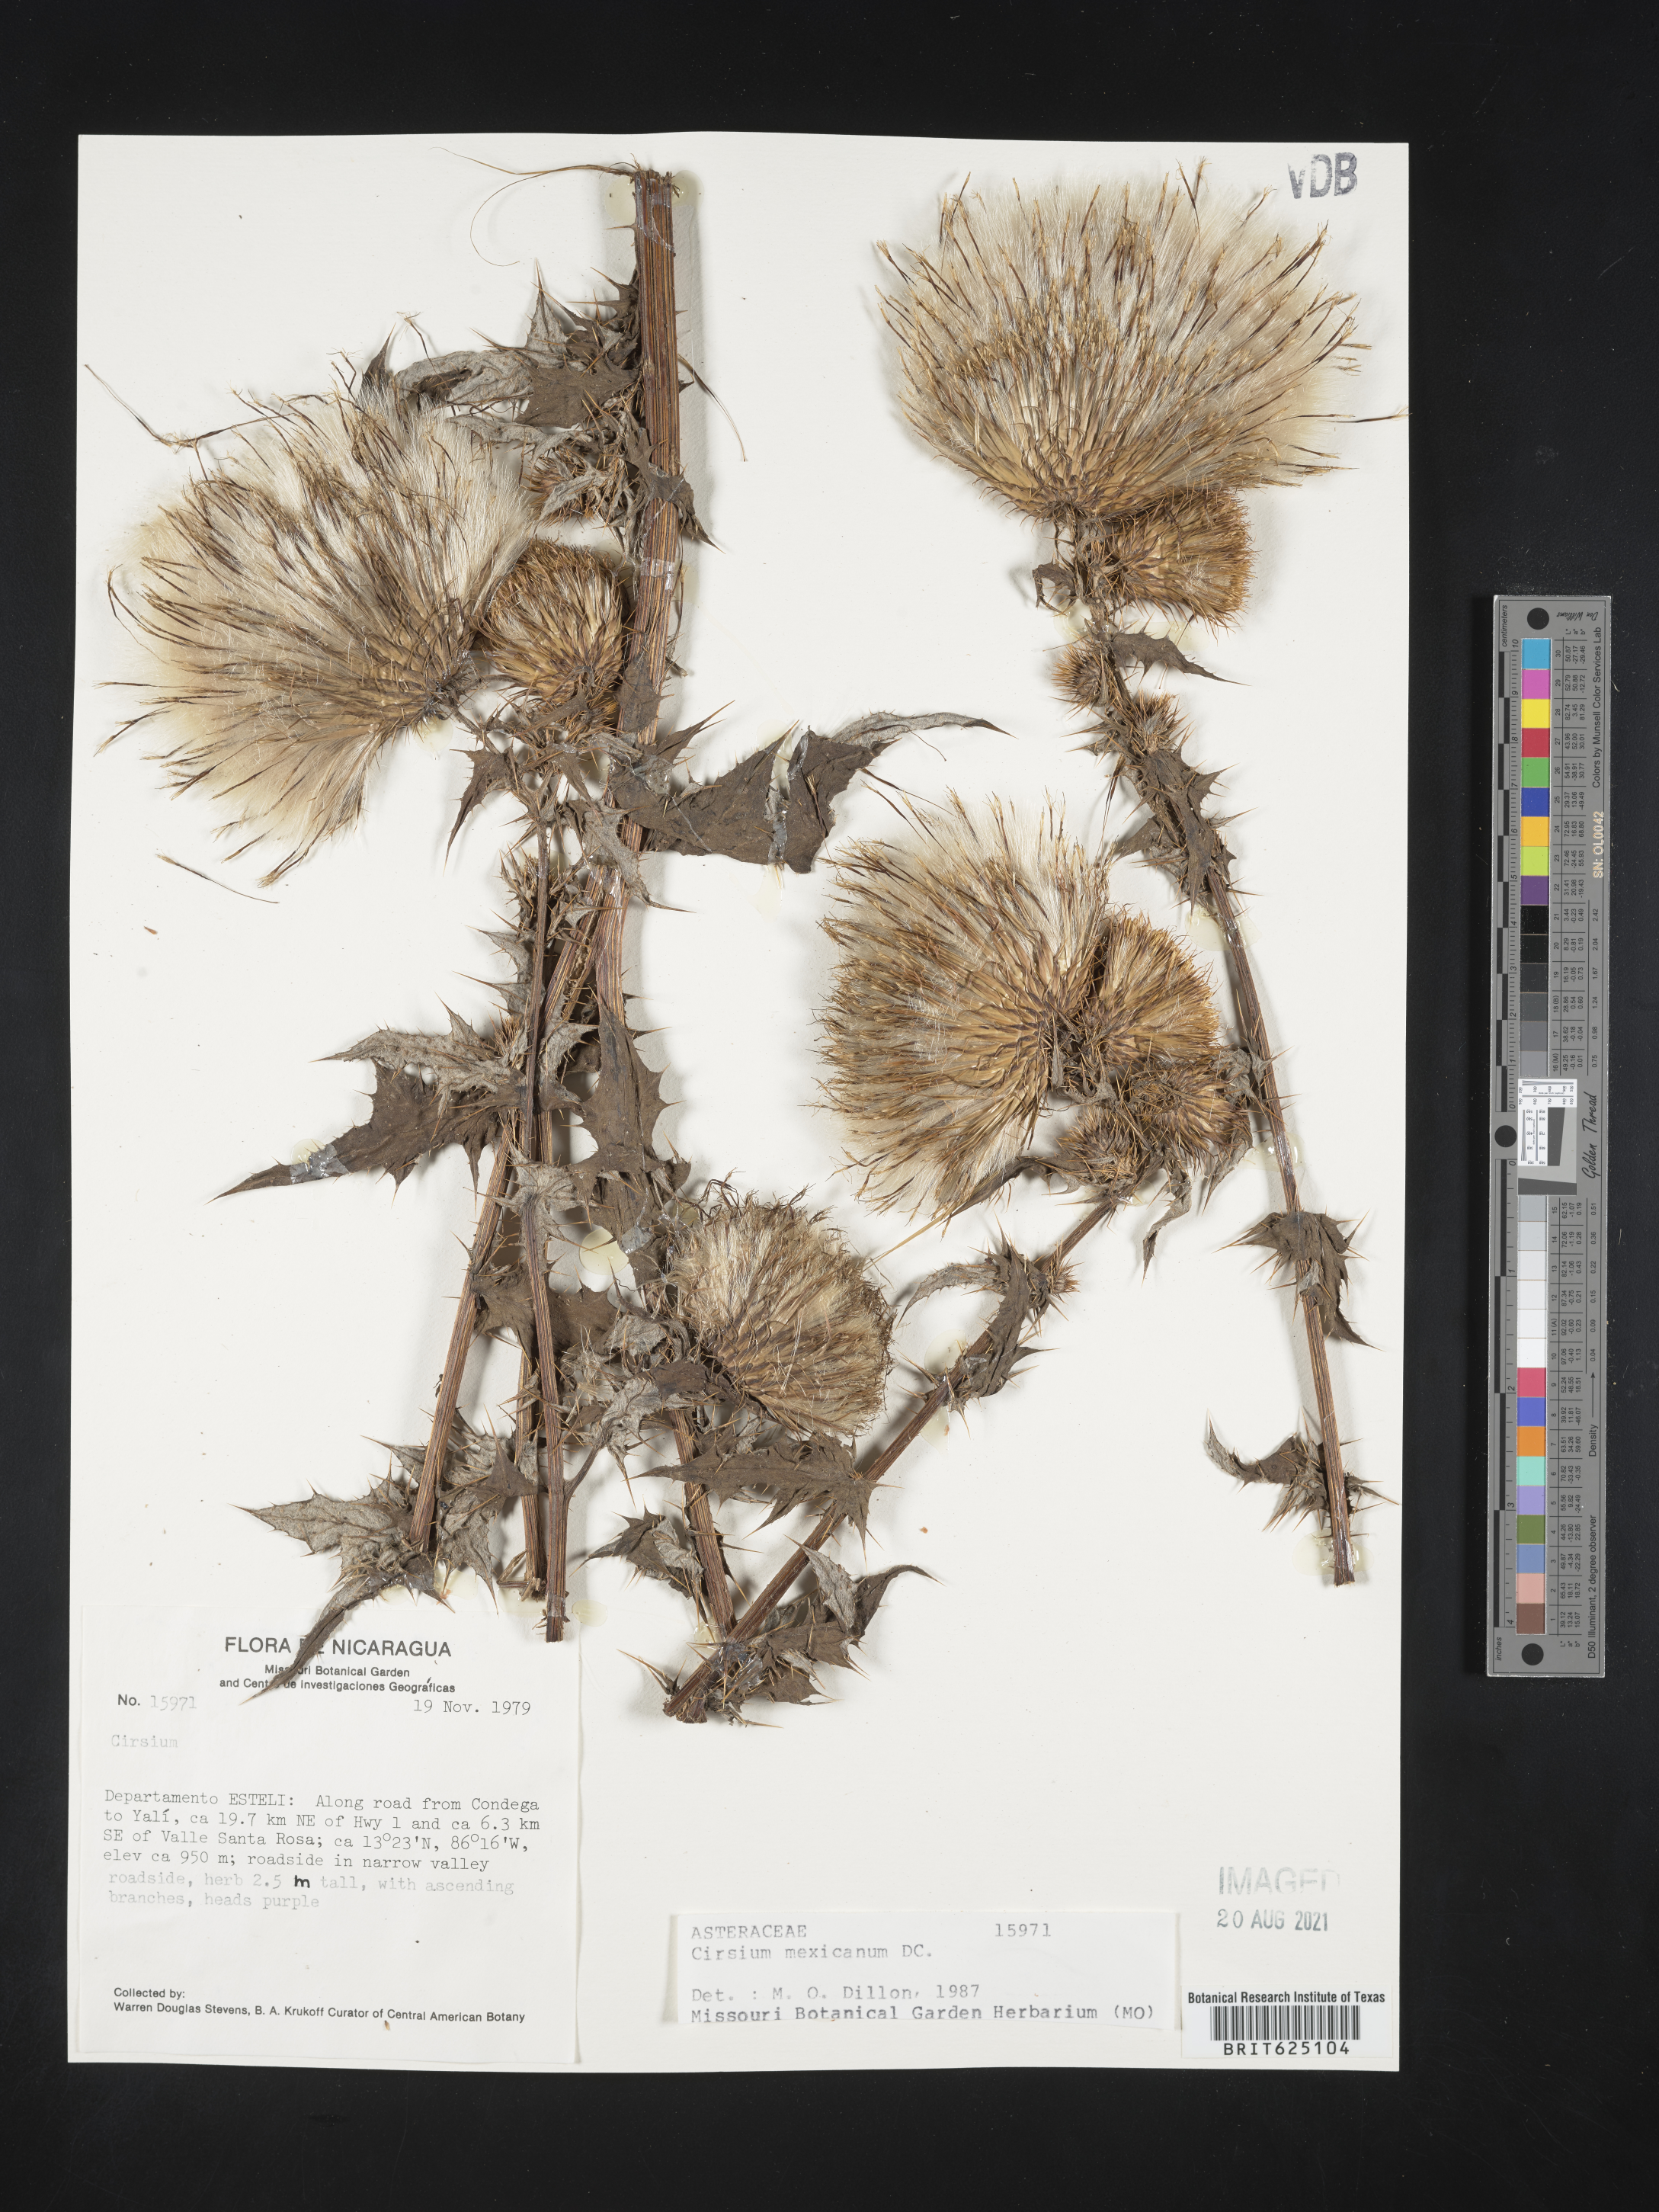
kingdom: Plantae
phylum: Tracheophyta
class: Magnoliopsida
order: Asterales
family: Asteraceae
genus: Cirsium
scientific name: Cirsium mexicanum
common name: Mexican thistle
